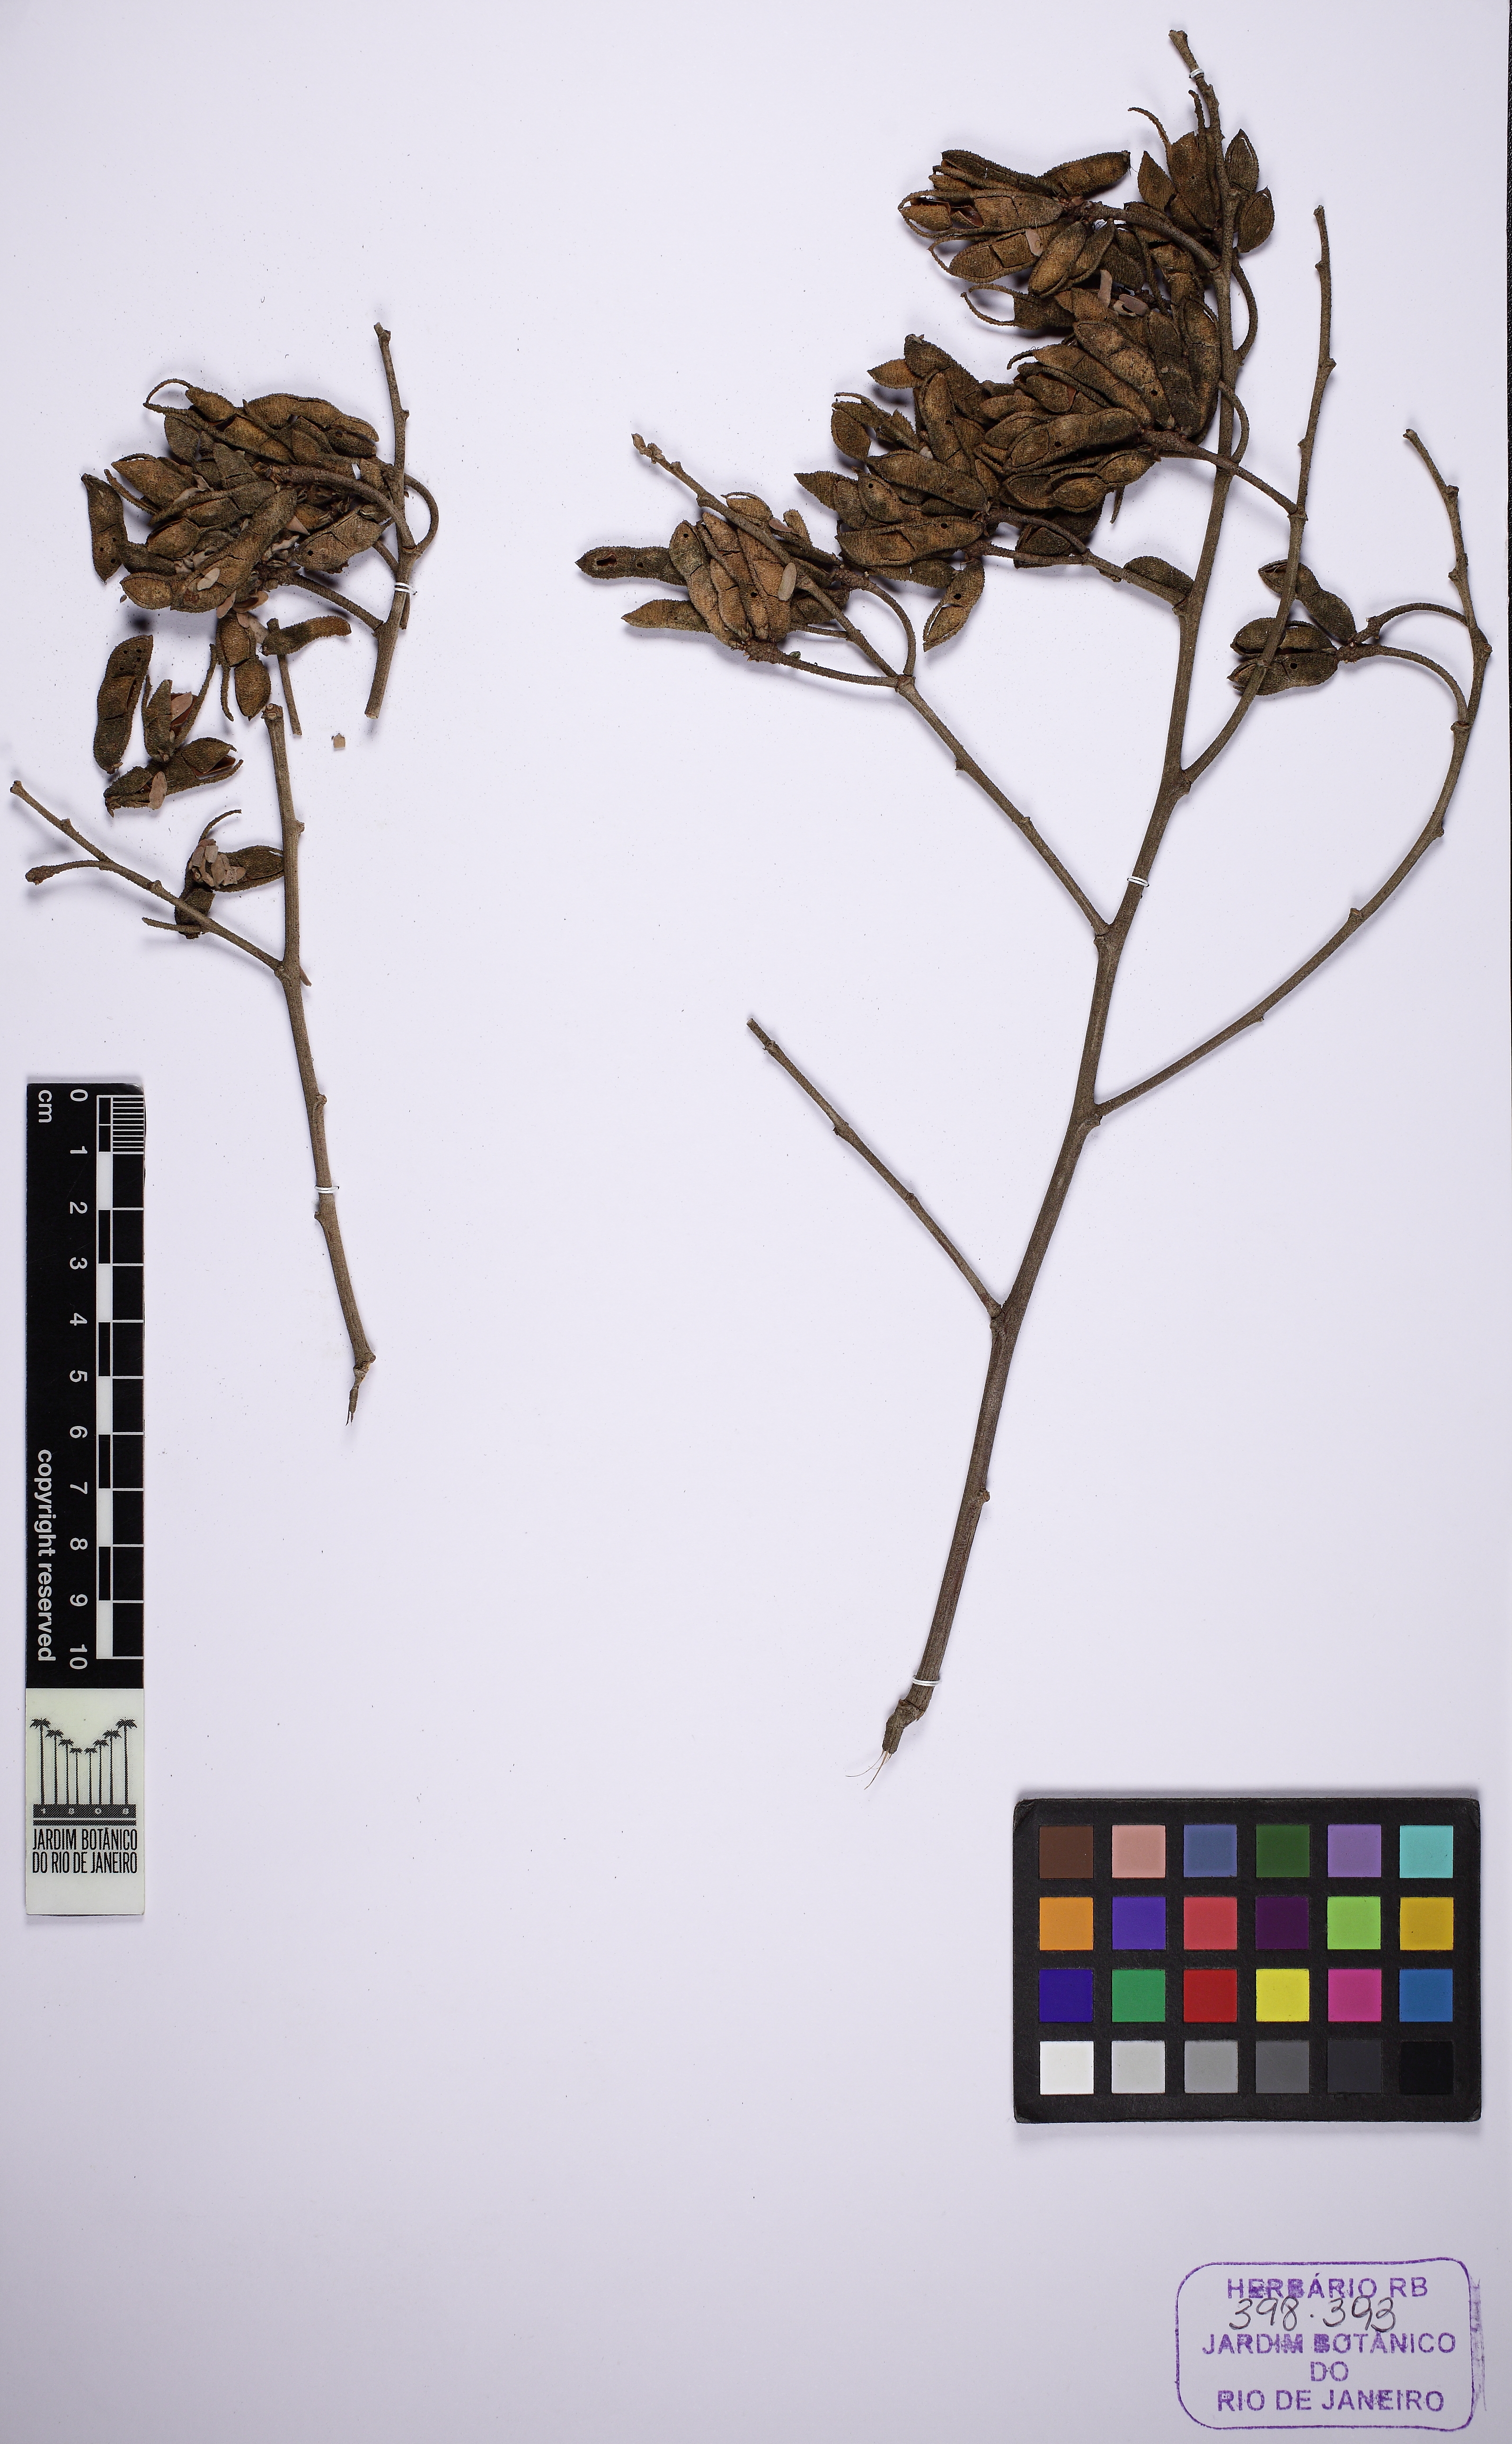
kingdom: Plantae
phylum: Tracheophyta
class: Magnoliopsida
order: Fabales
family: Fabaceae
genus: Mimosa
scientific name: Mimosa scabrella
